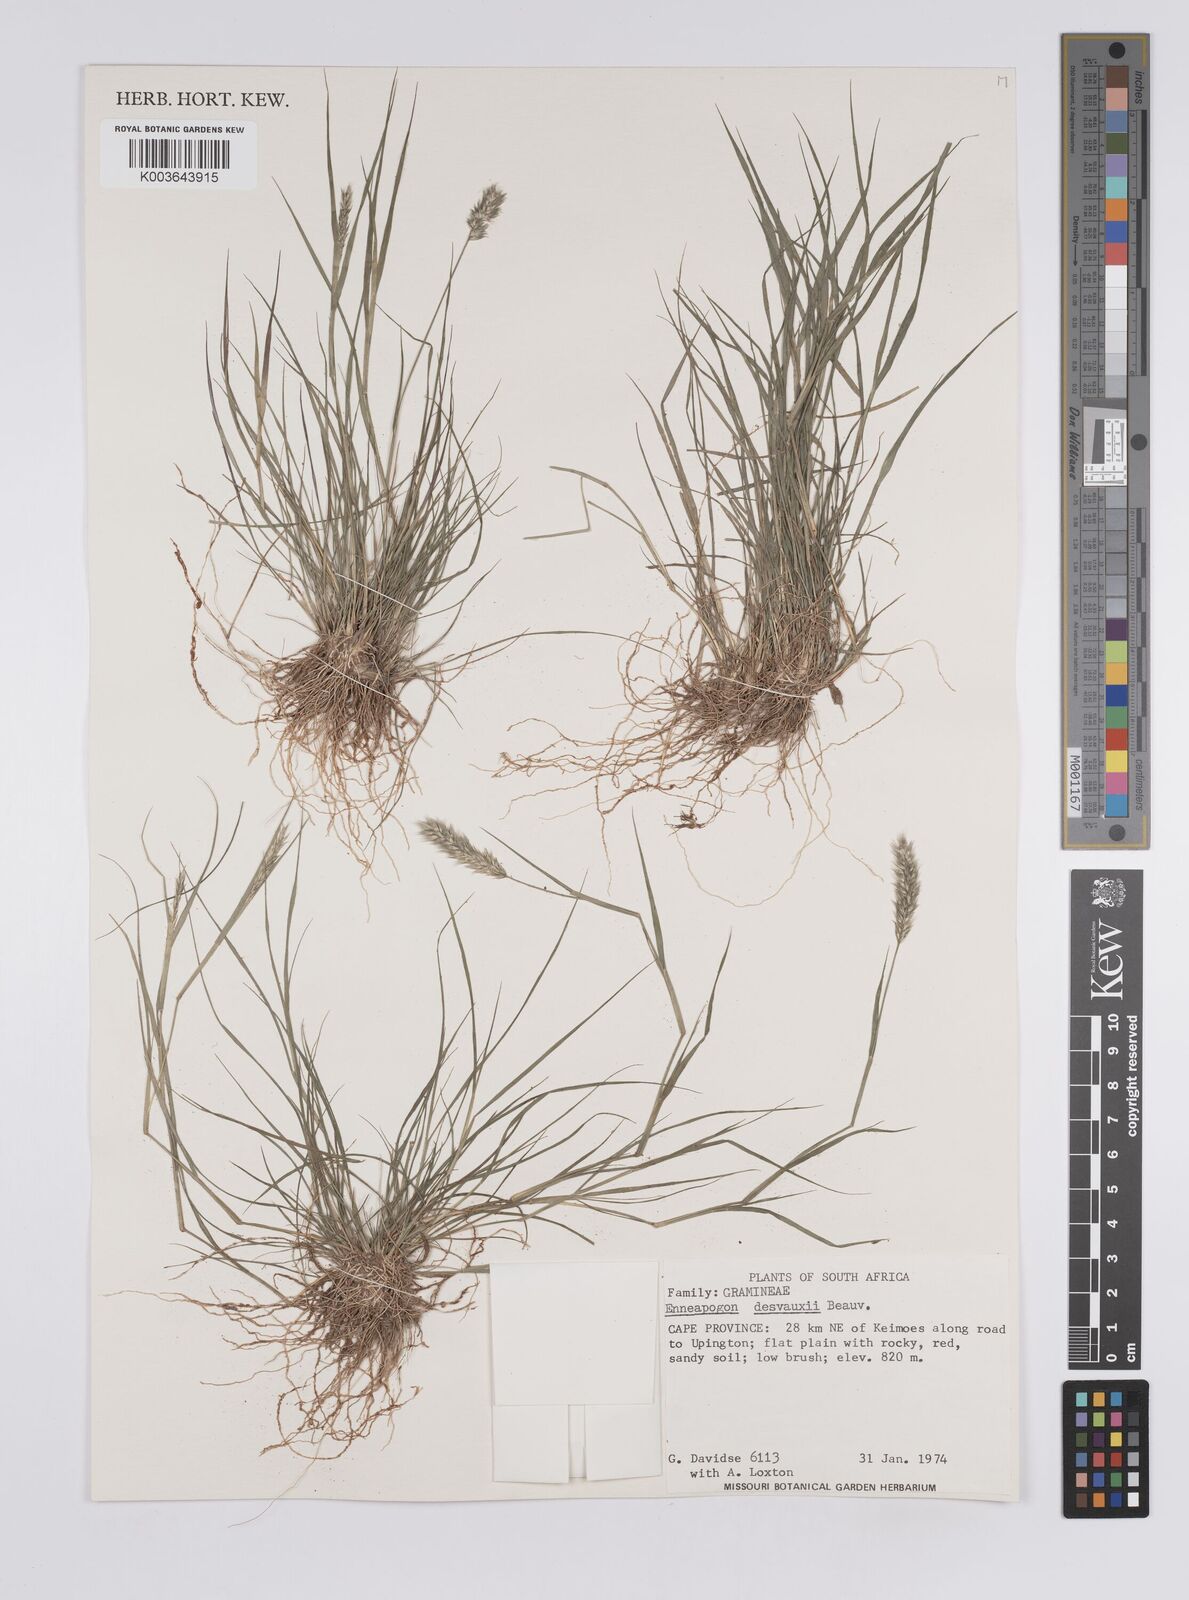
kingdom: Plantae
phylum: Tracheophyta
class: Liliopsida
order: Poales
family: Poaceae
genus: Enneapogon
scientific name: Enneapogon desvauxii
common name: Feather pappus grass
